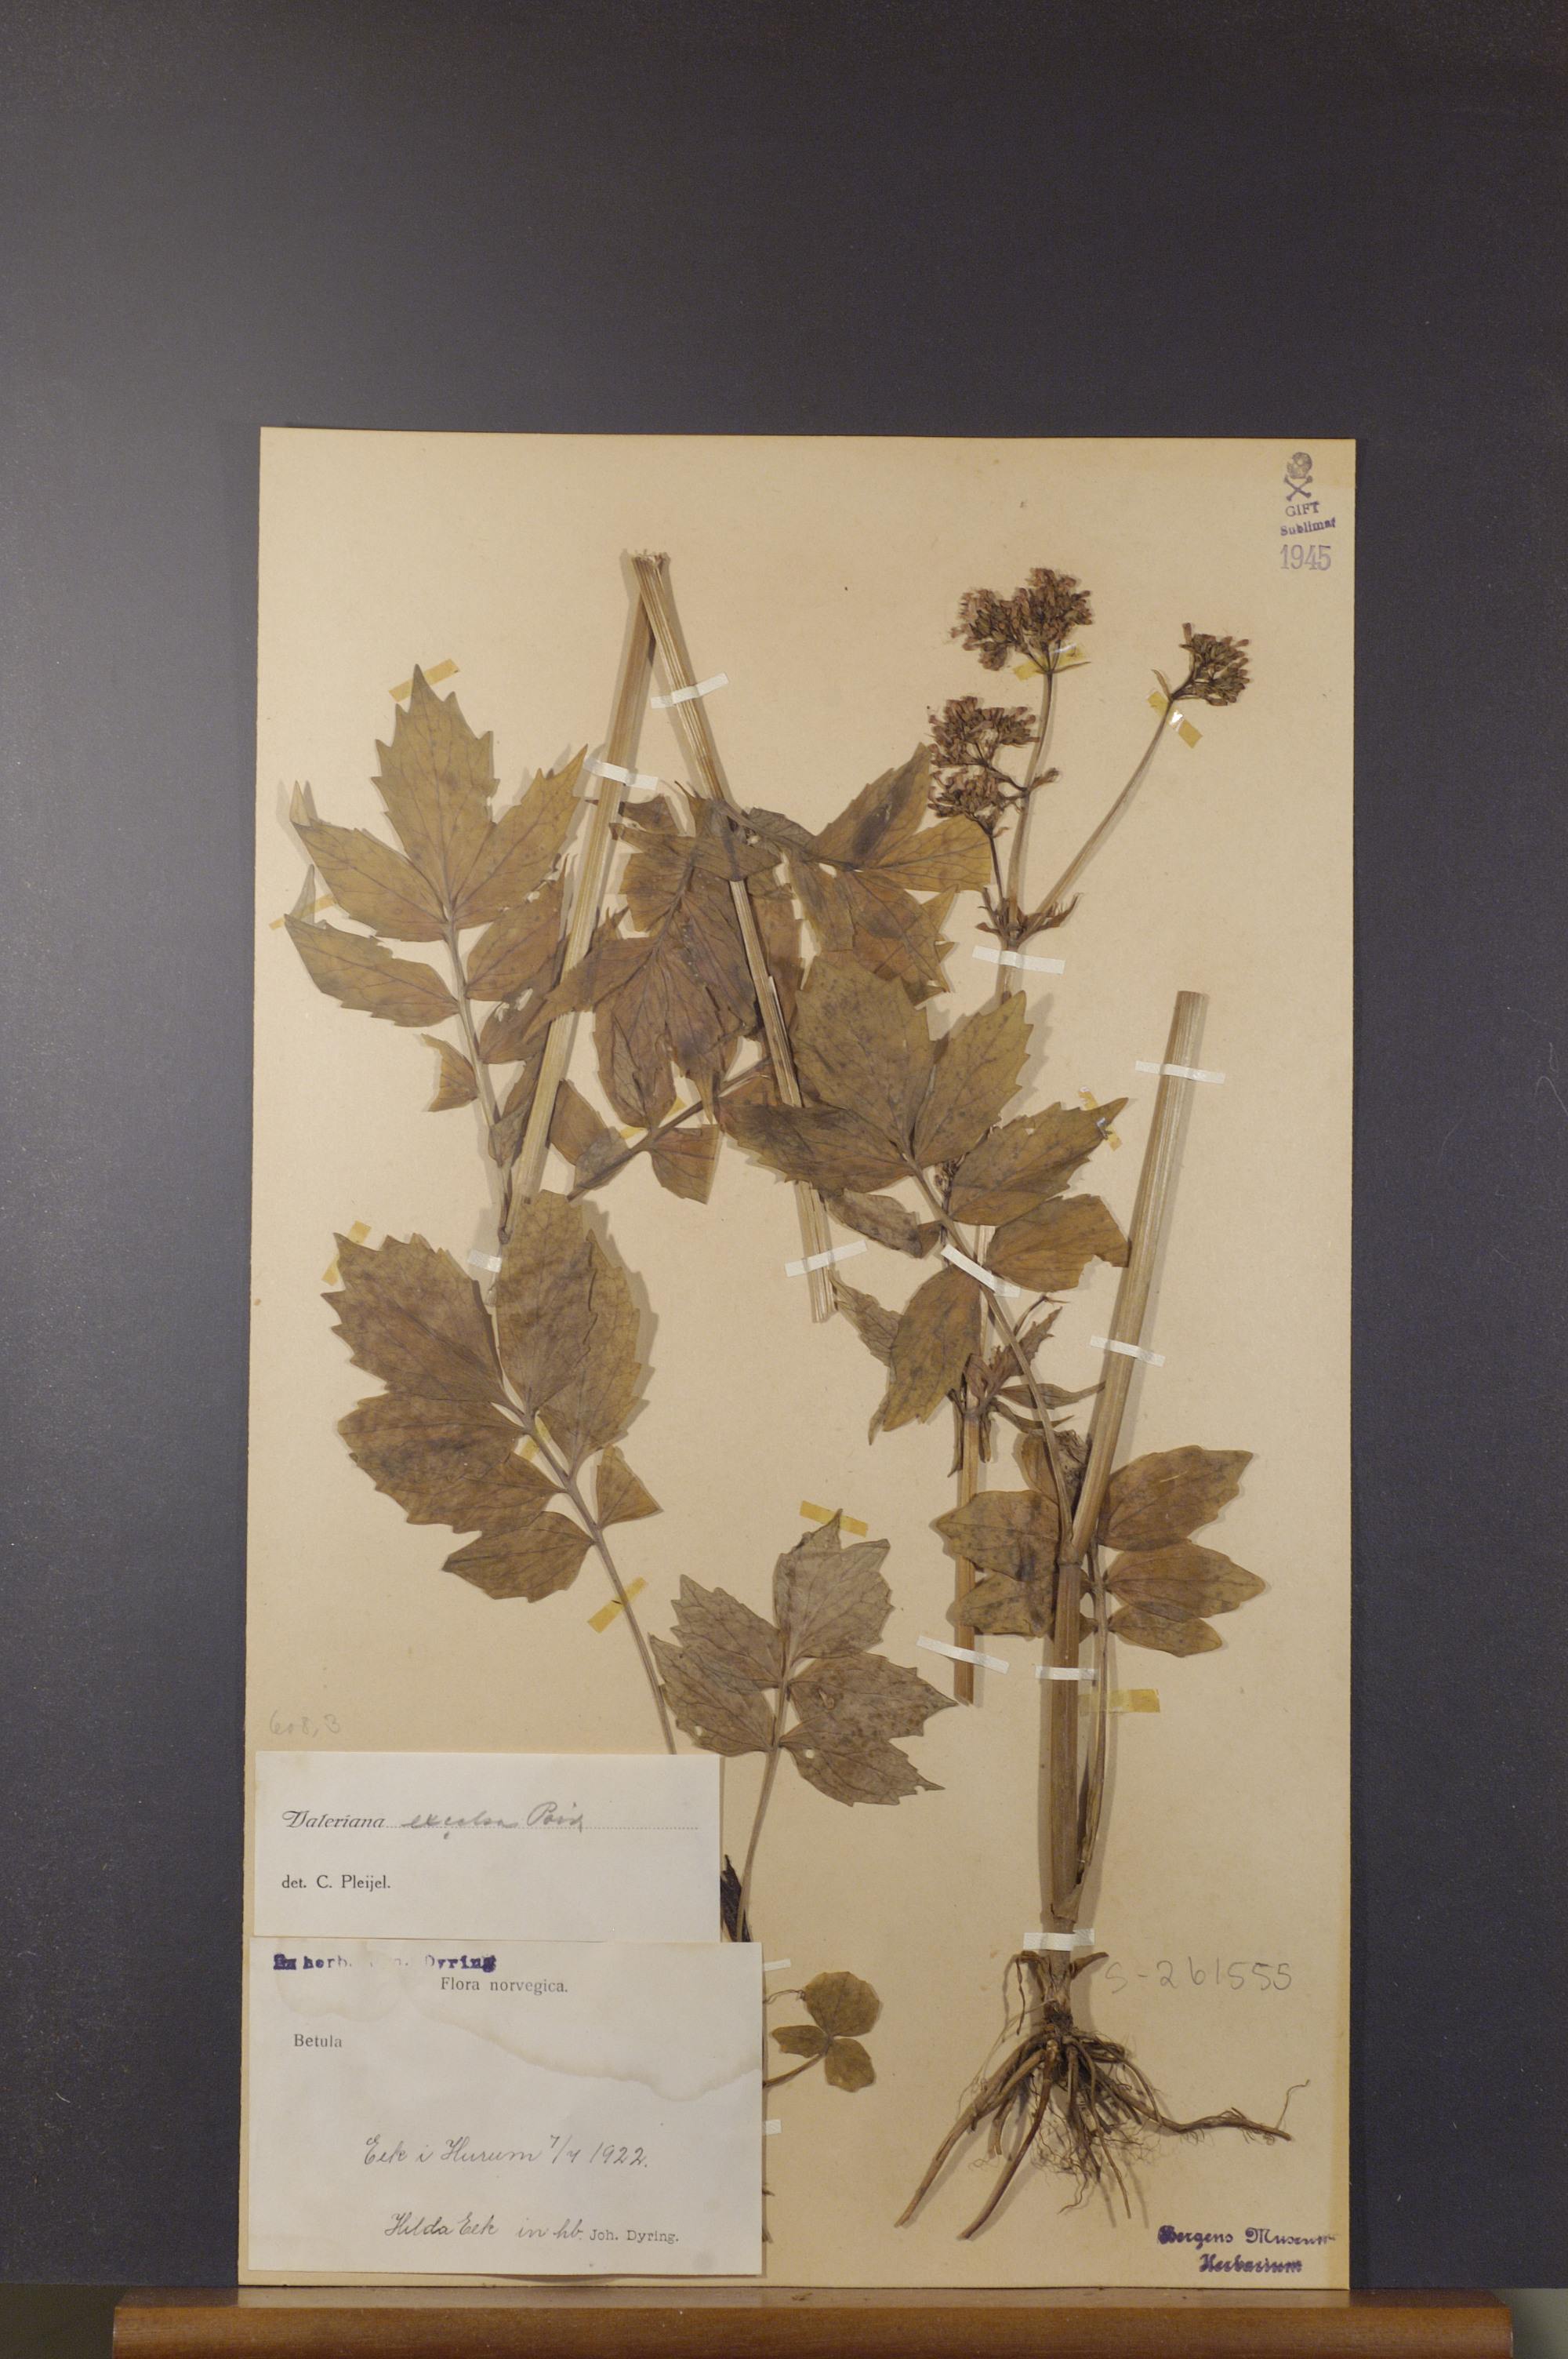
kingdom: Plantae
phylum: Tracheophyta
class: Magnoliopsida
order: Dipsacales
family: Caprifoliaceae
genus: Valeriana
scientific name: Valeriana sambucifolia
